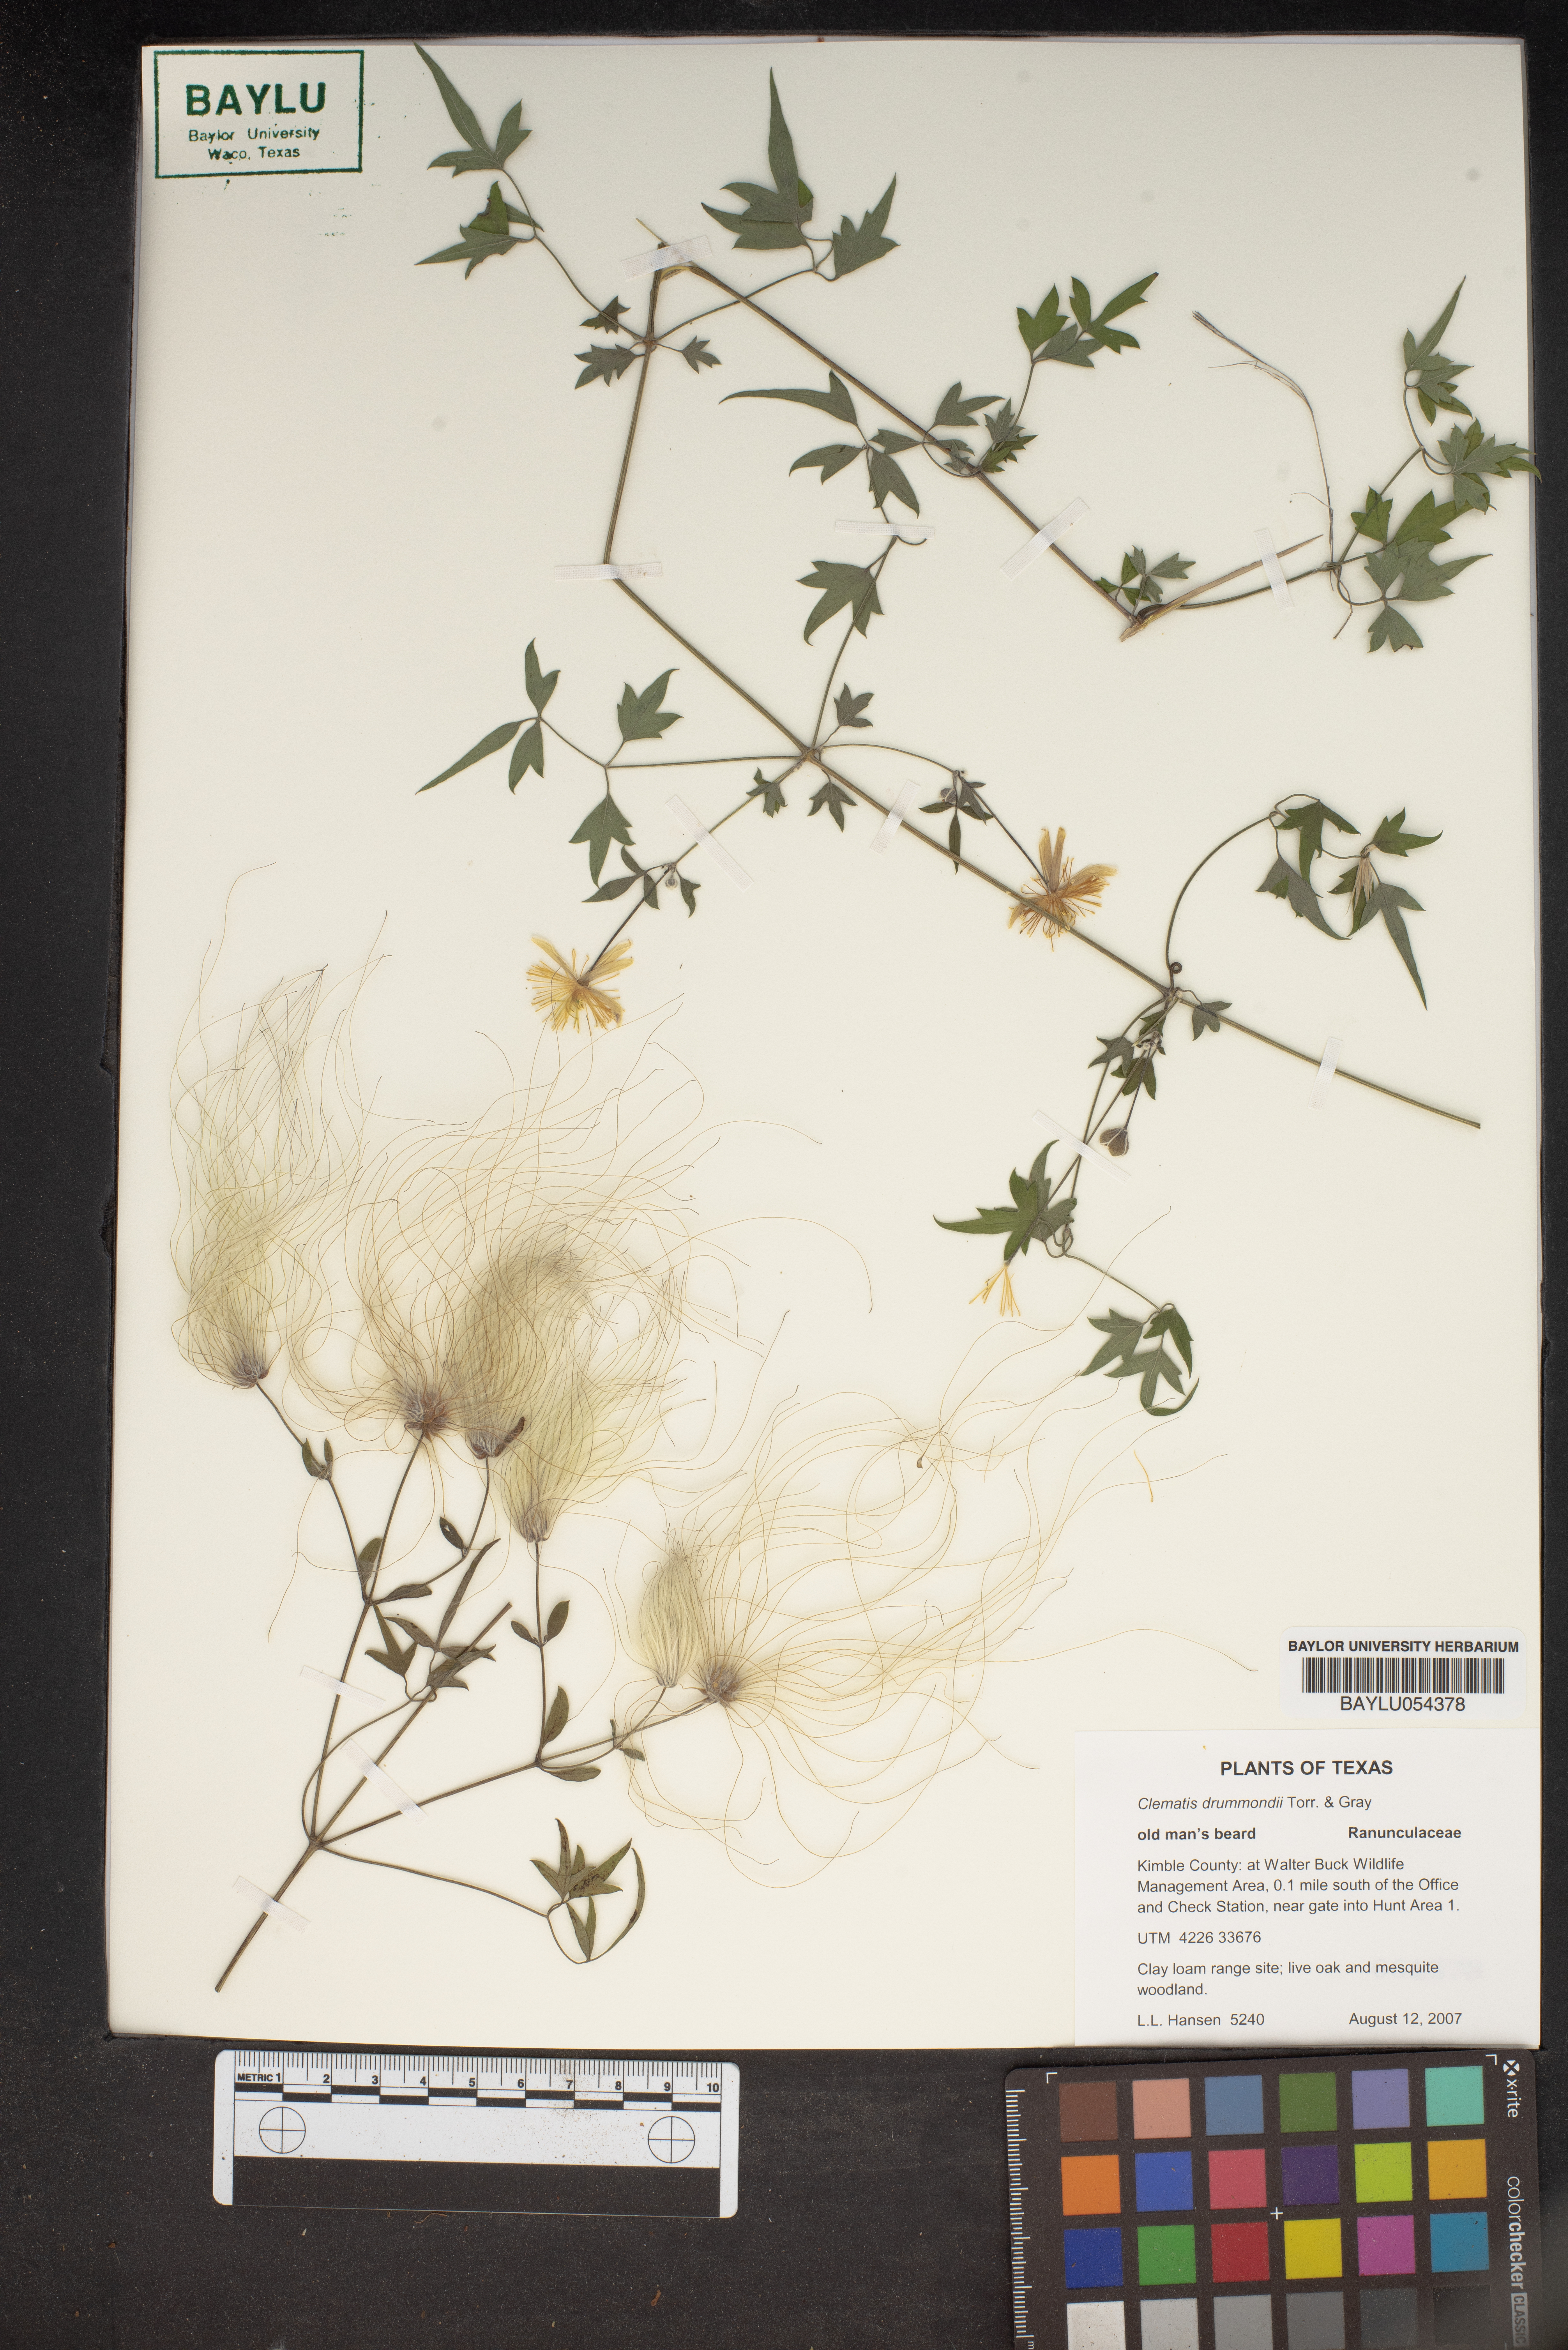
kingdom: Plantae
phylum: Tracheophyta
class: Magnoliopsida
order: Ranunculales
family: Ranunculaceae
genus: Clematis
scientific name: Clematis drummondii
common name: Texas virgin's bower
